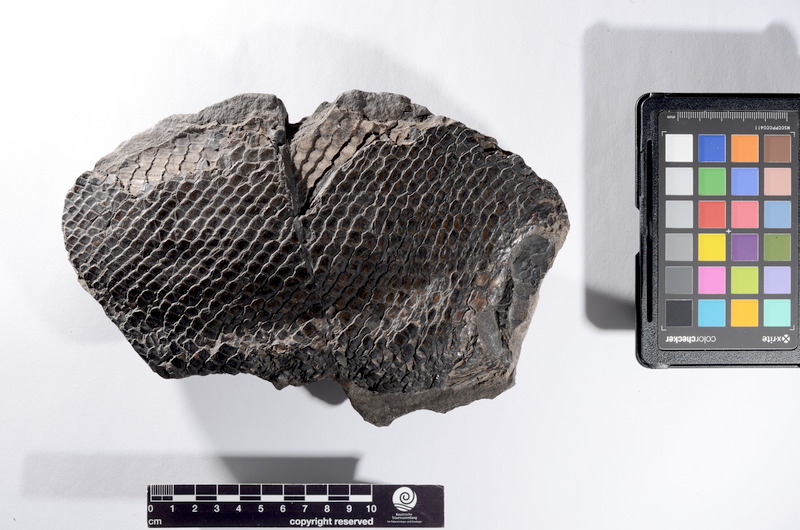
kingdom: Animalia
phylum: Chordata
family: Colobodontidae
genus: Colobodus
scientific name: Colobodus Semionotus latus
